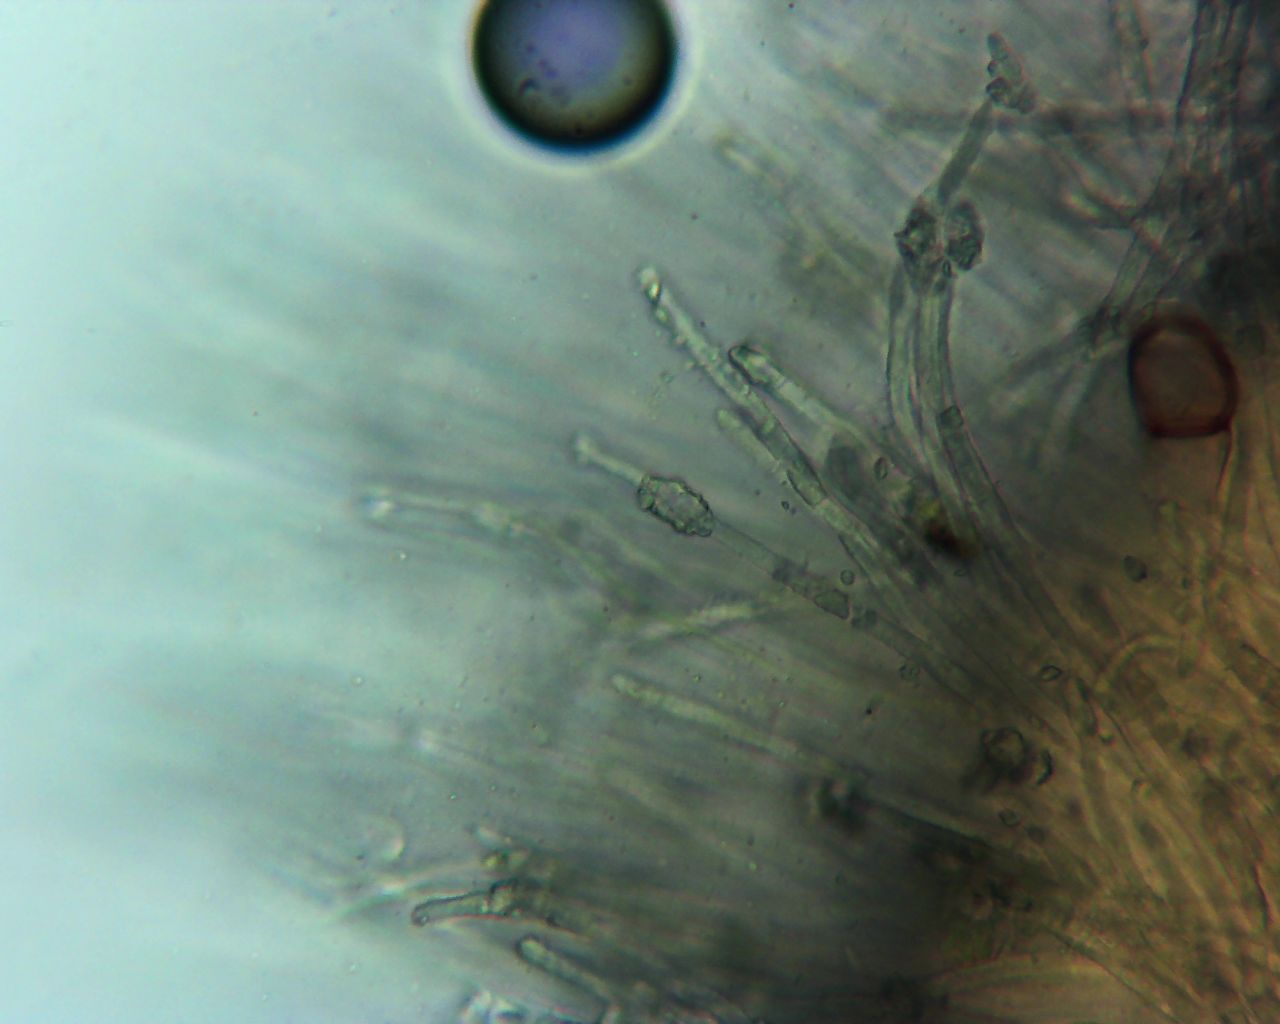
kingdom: Fungi
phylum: Ascomycota
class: Leotiomycetes
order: Helotiales
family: Lachnaceae
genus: Capitotricha
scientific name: Capitotricha bicolor
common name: prægtig frynseskive
